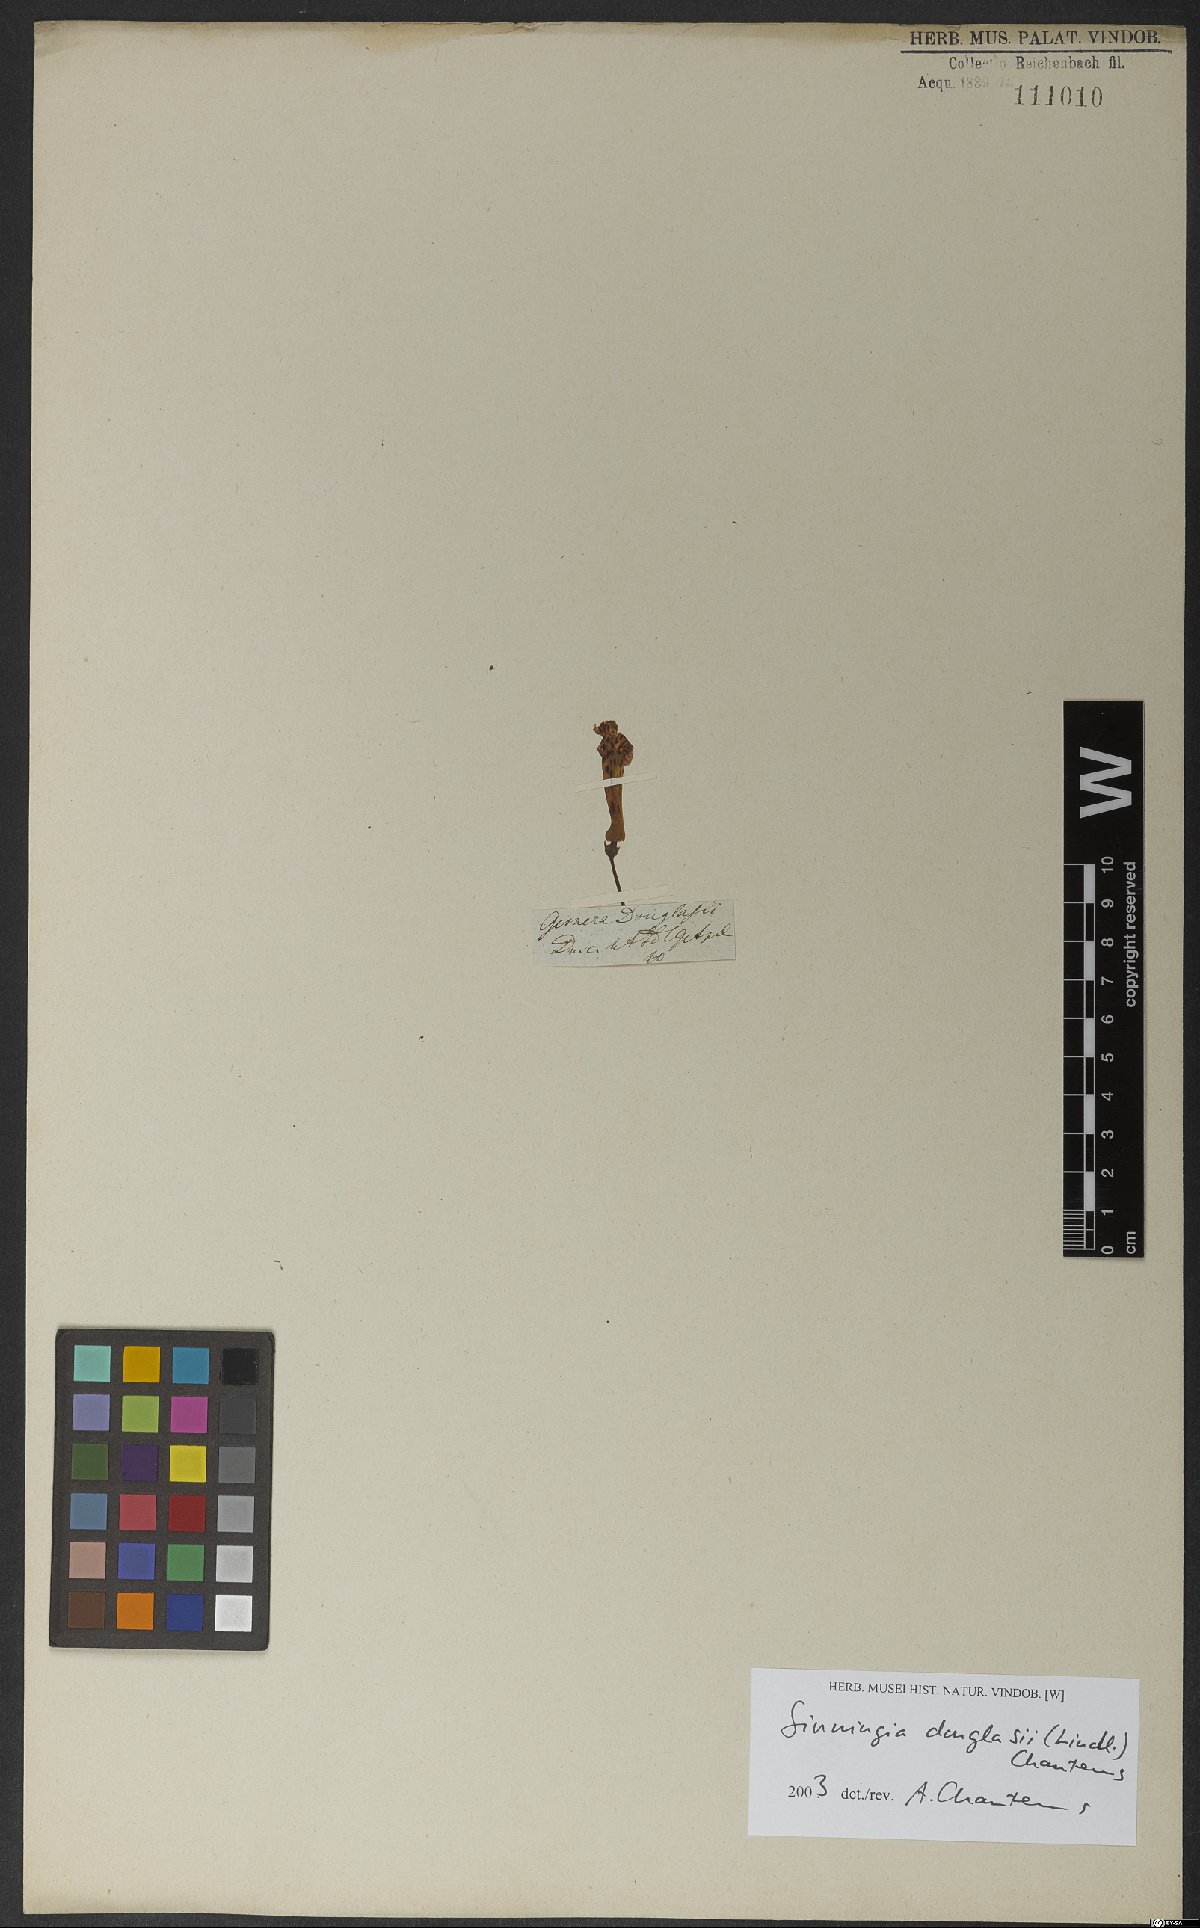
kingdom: Plantae
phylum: Tracheophyta
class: Magnoliopsida
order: Lamiales
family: Gesneriaceae
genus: Sinningia
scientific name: Sinningia douglasii
